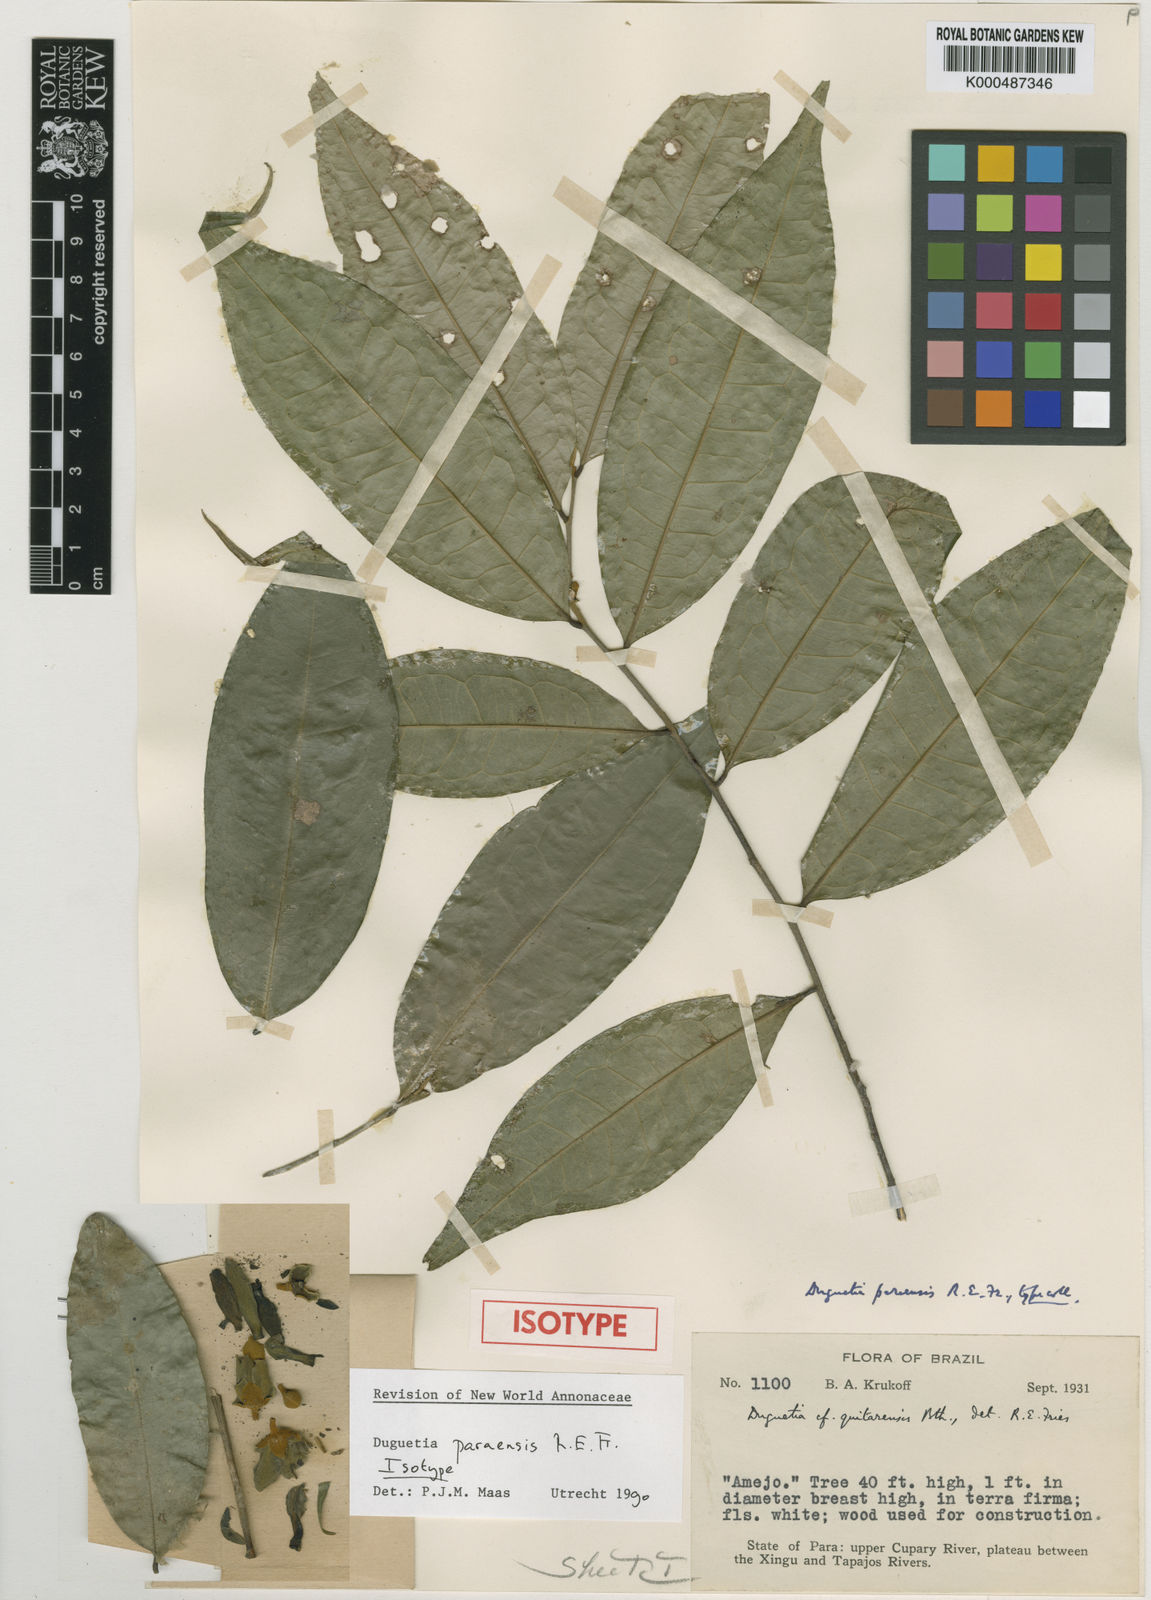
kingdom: Plantae
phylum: Tracheophyta
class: Magnoliopsida
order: Magnoliales
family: Annonaceae
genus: Duguetia
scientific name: Duguetia paraensis
